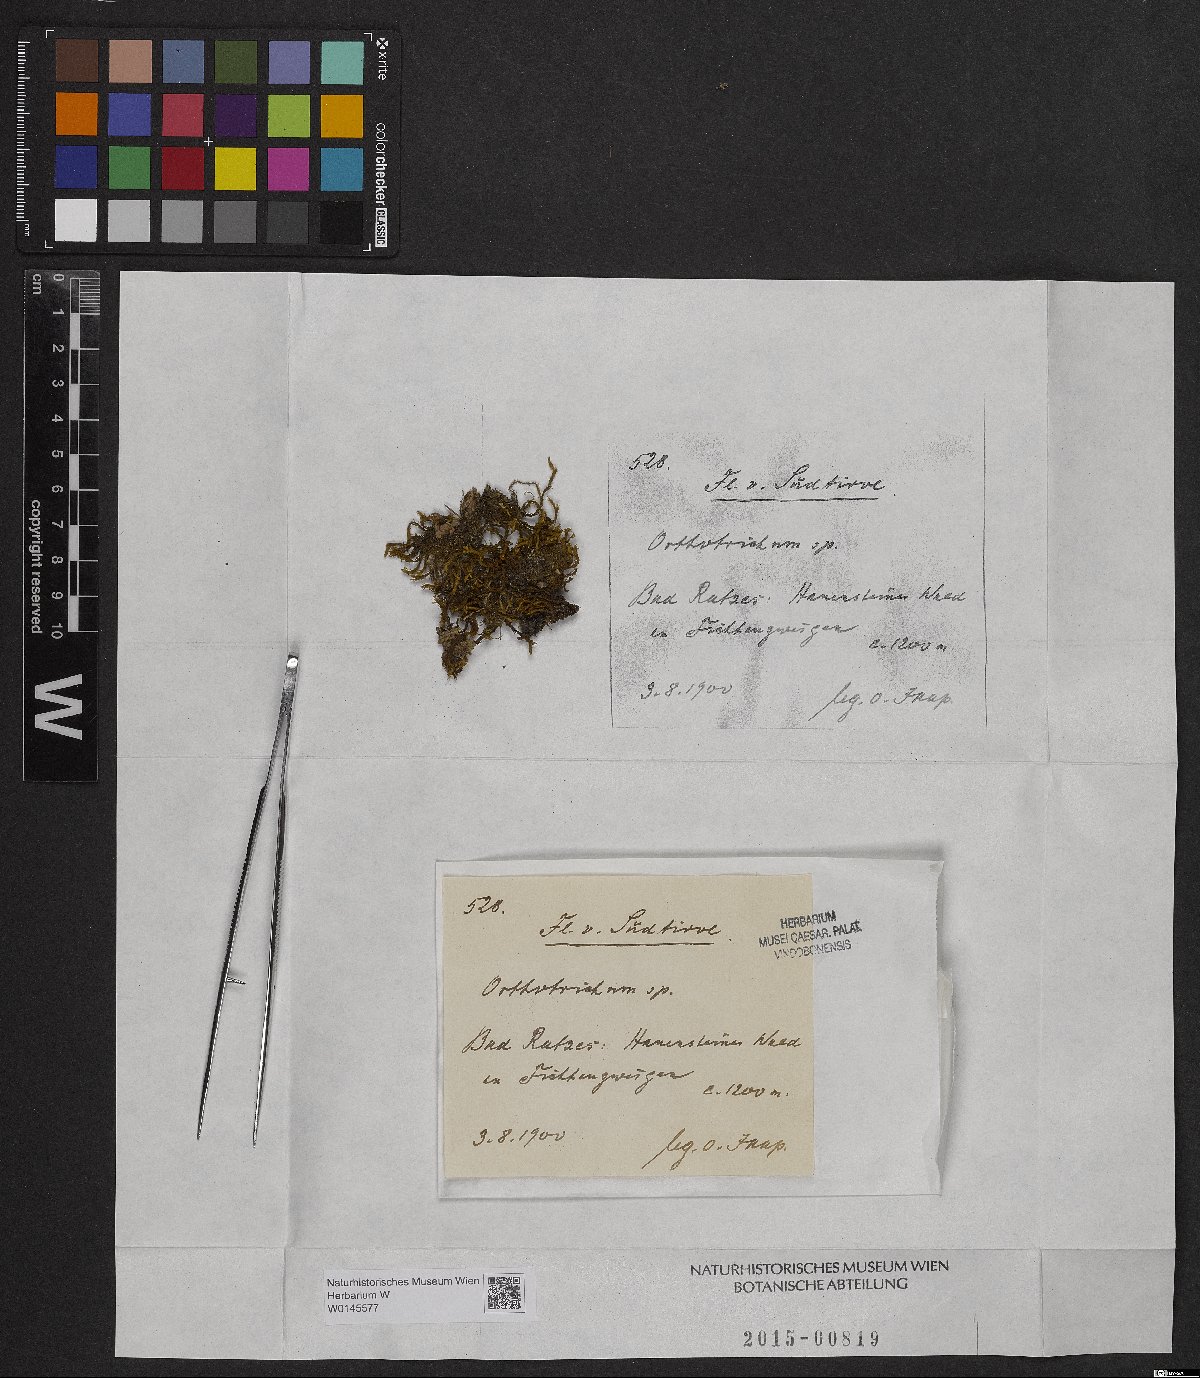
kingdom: Plantae
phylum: Bryophyta
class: Bryopsida
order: Orthotrichales
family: Orthotrichaceae
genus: Orthotrichum
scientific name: Orthotrichum
